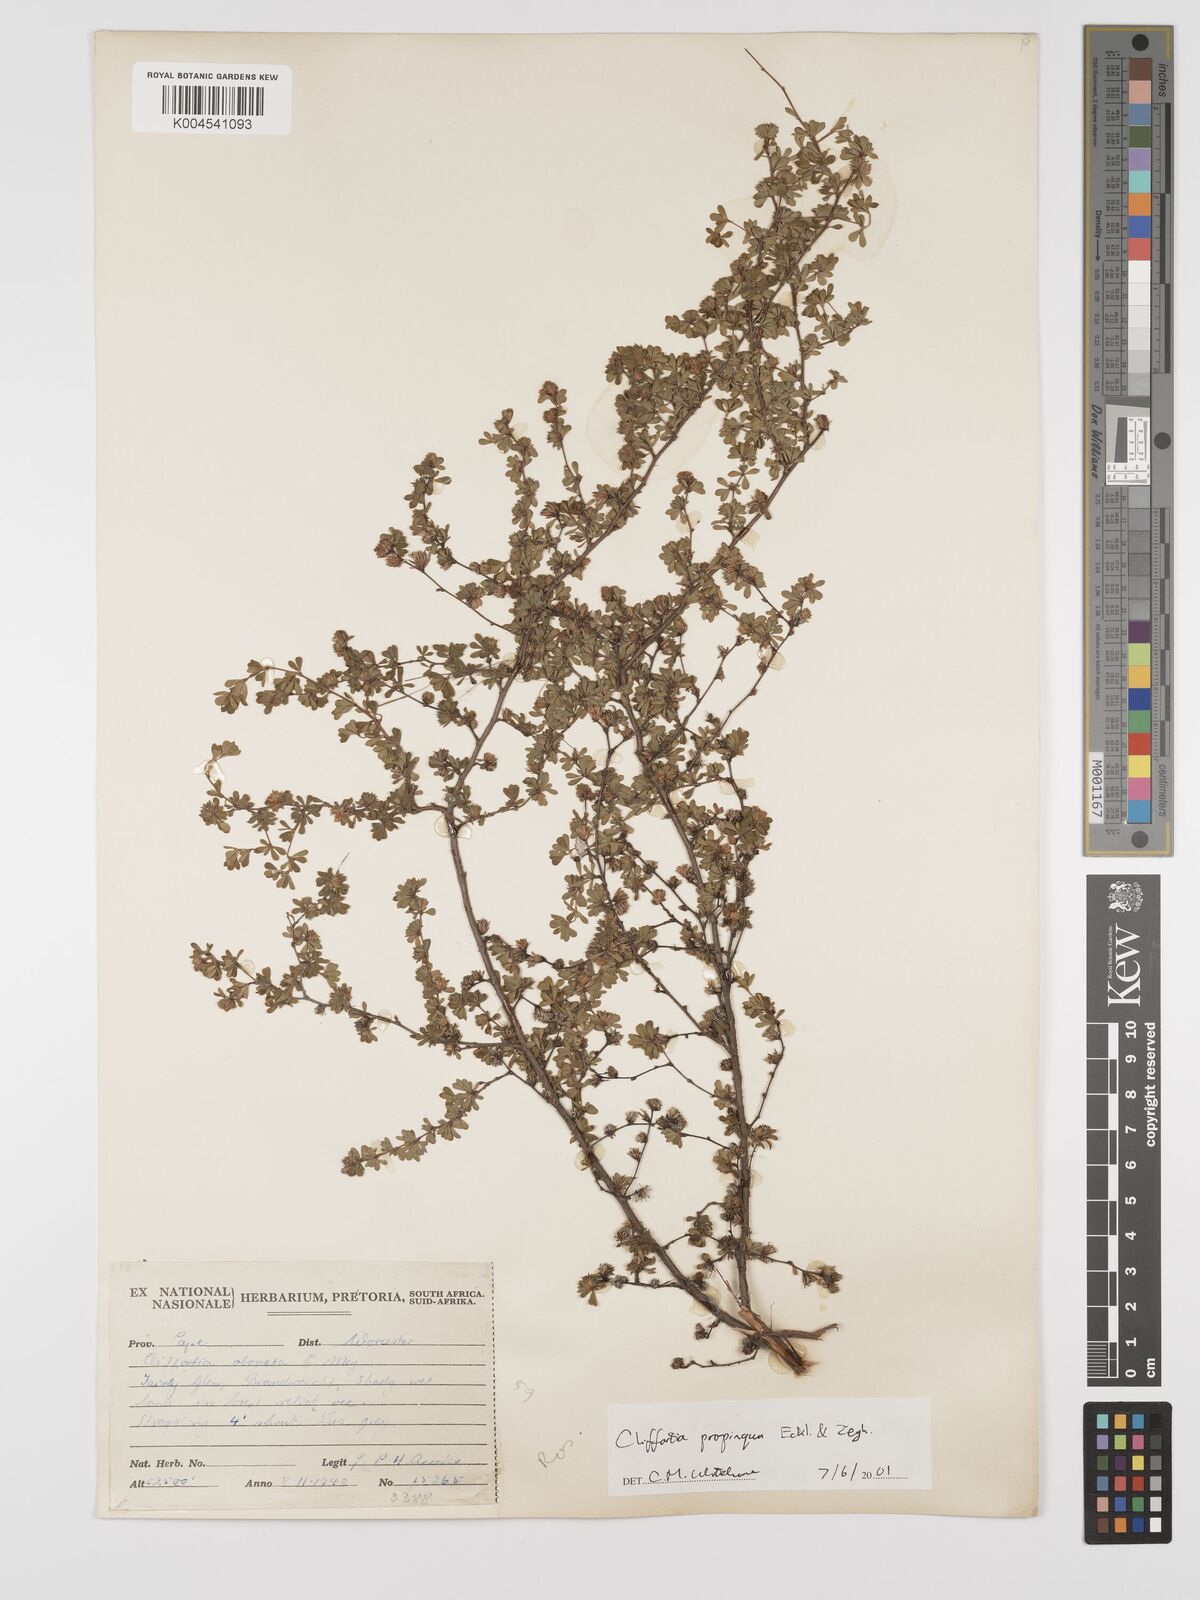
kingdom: Plantae
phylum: Tracheophyta
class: Magnoliopsida
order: Rosales
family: Rosaceae
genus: Cliffortia
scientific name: Cliffortia propinqua
